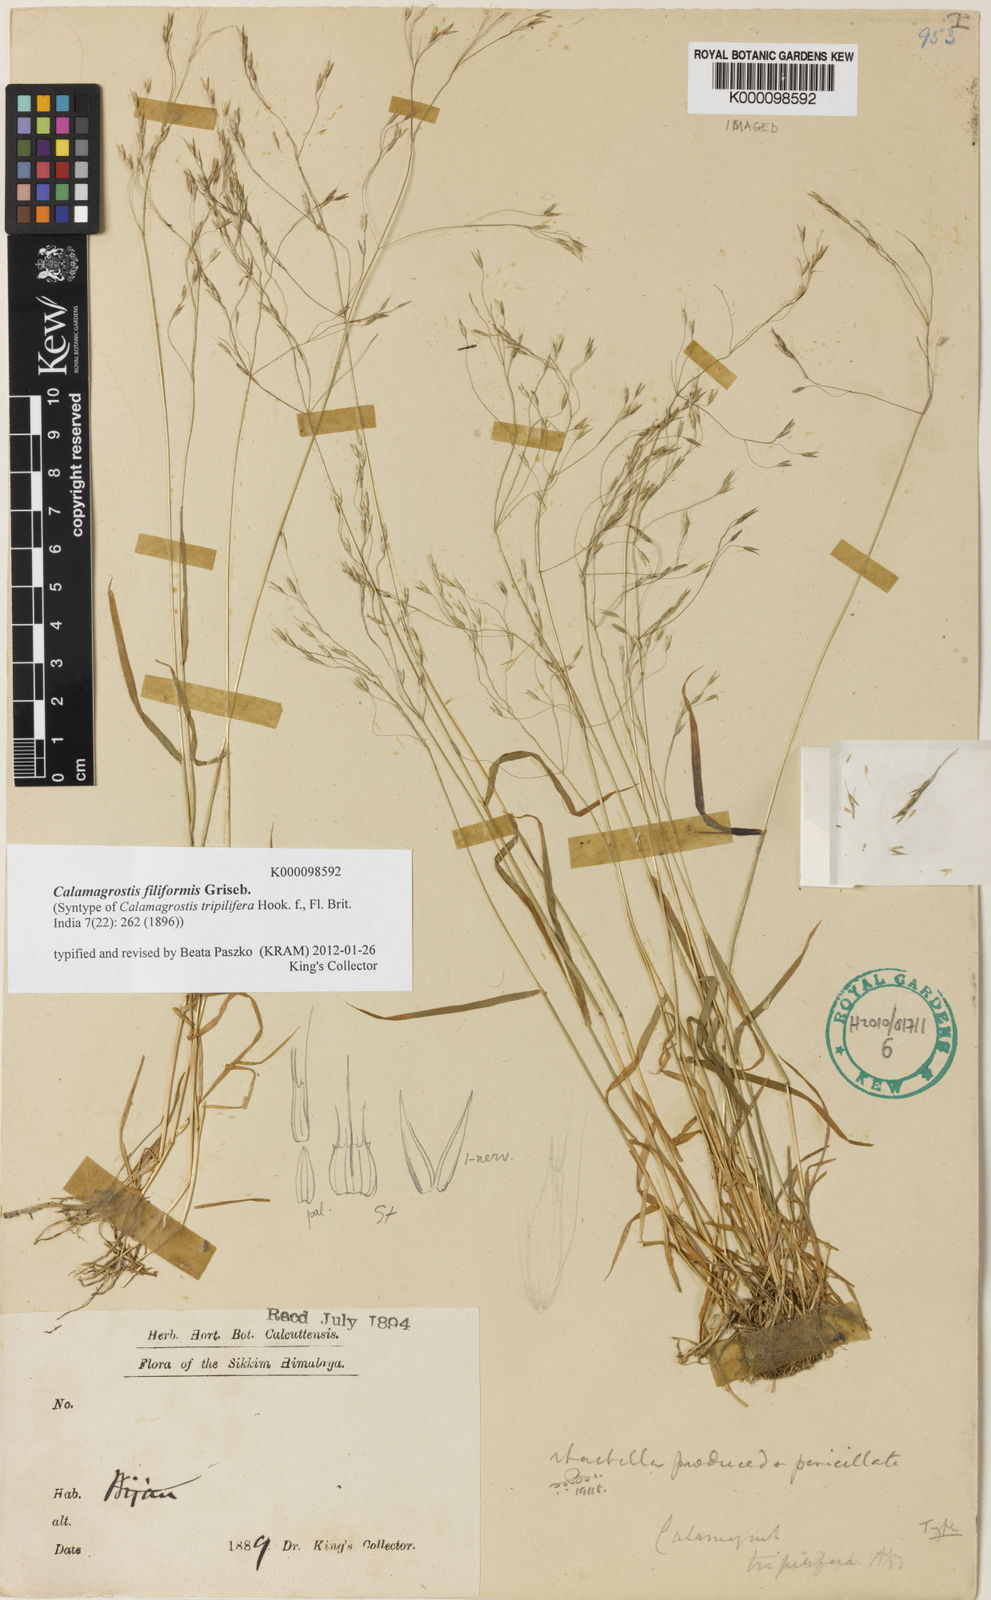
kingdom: Plantae
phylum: Tracheophyta
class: Liliopsida
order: Poales
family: Poaceae
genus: Calamagrostis
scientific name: Calamagrostis filiformis
